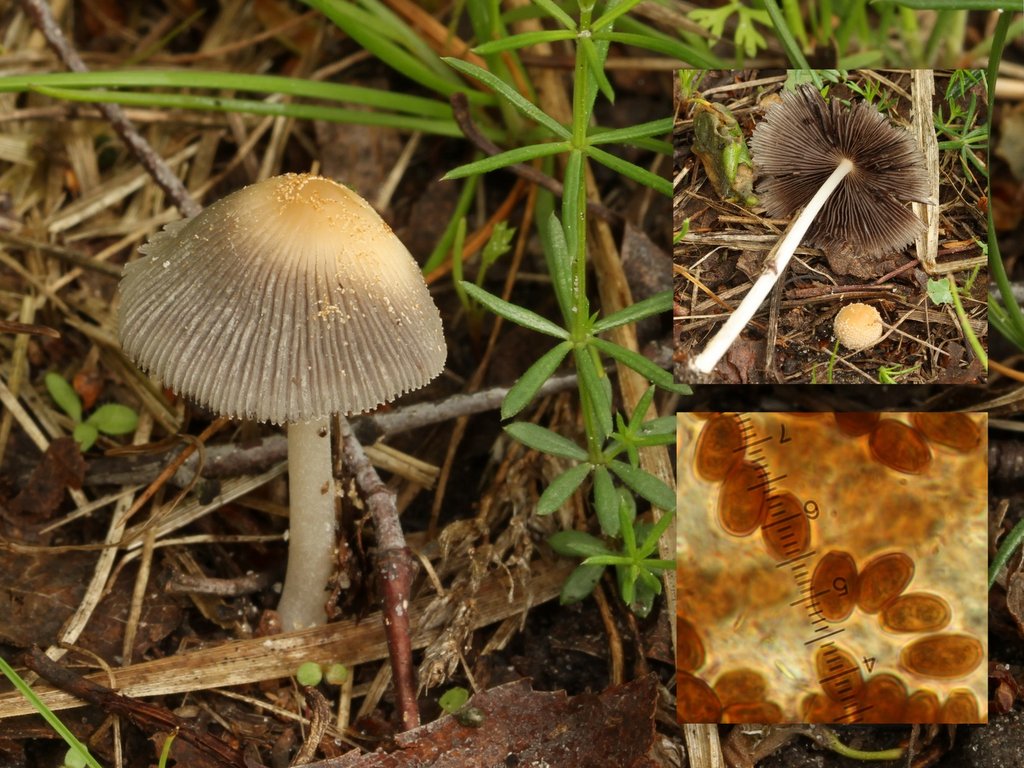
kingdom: Fungi
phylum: Basidiomycota
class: Agaricomycetes
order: Agaricales
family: Psathyrellaceae
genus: Coprinellus
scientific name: Coprinellus xanthothrix
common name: gultrådet blækhat
